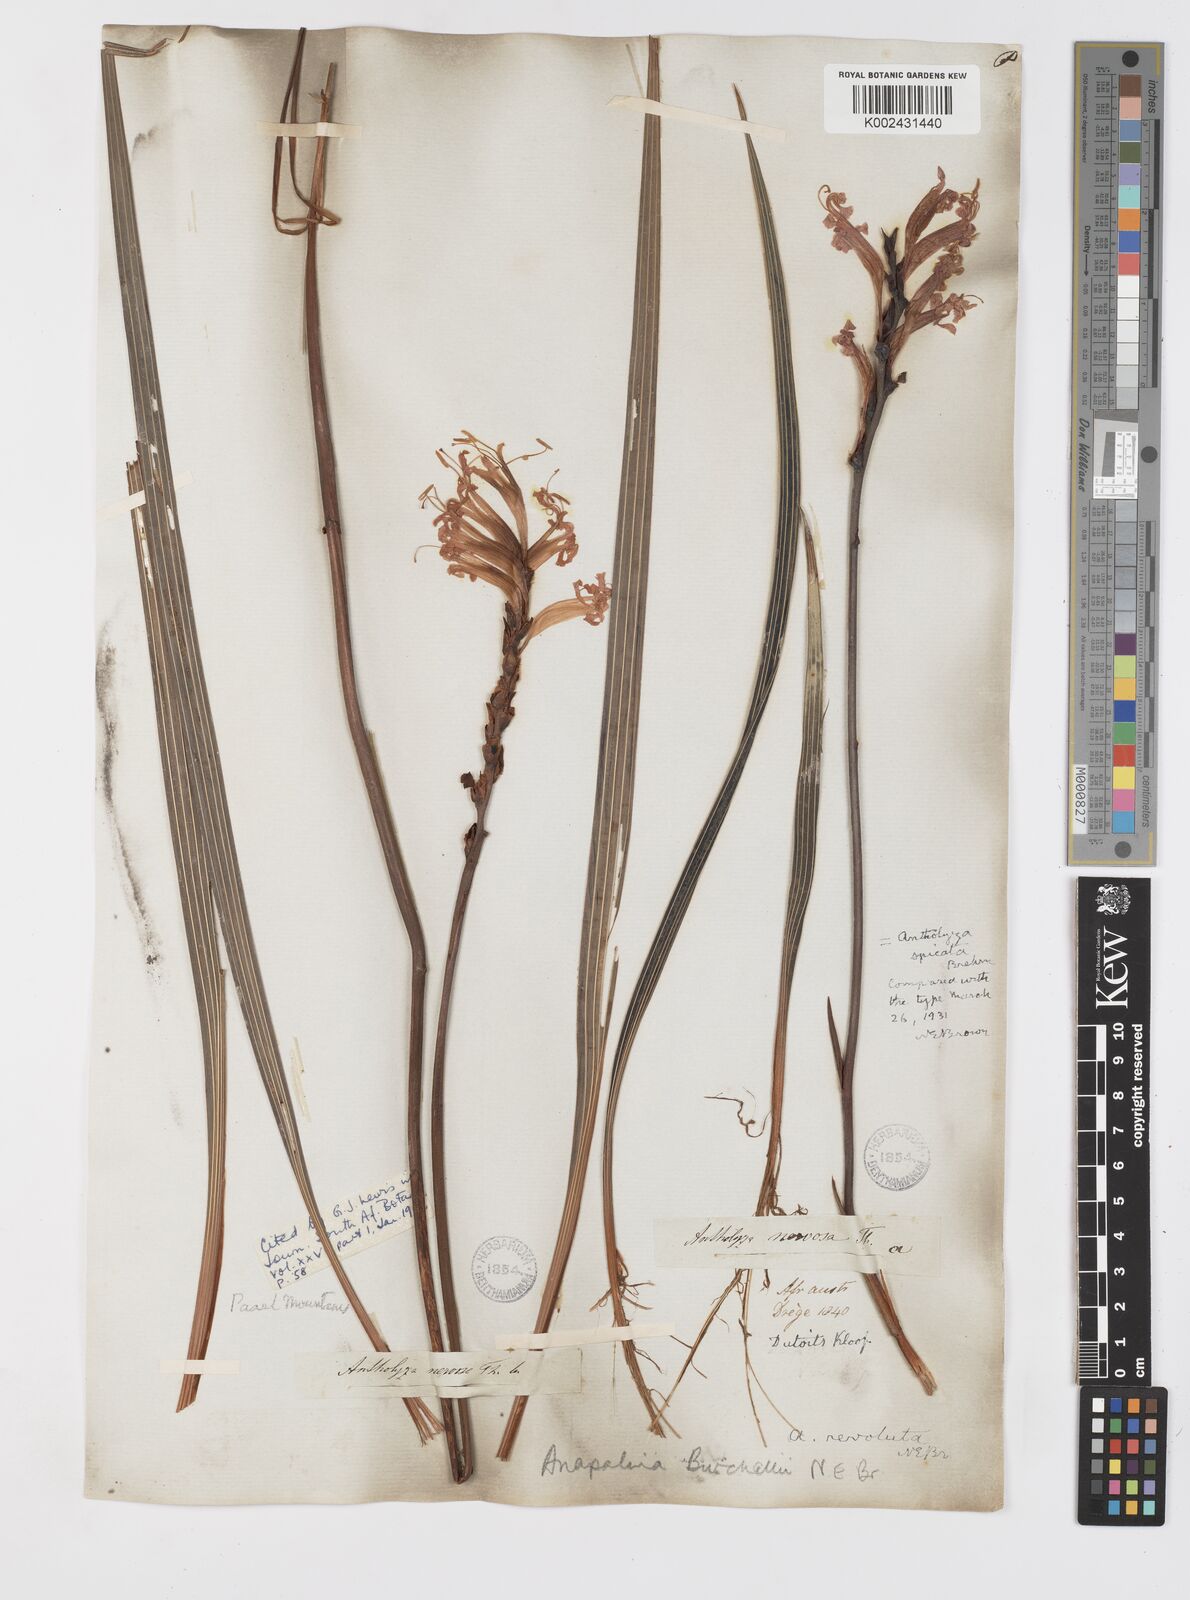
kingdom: Plantae
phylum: Tracheophyta
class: Liliopsida
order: Asparagales
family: Iridaceae
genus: Tritoniopsis
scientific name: Tritoniopsis triticea
